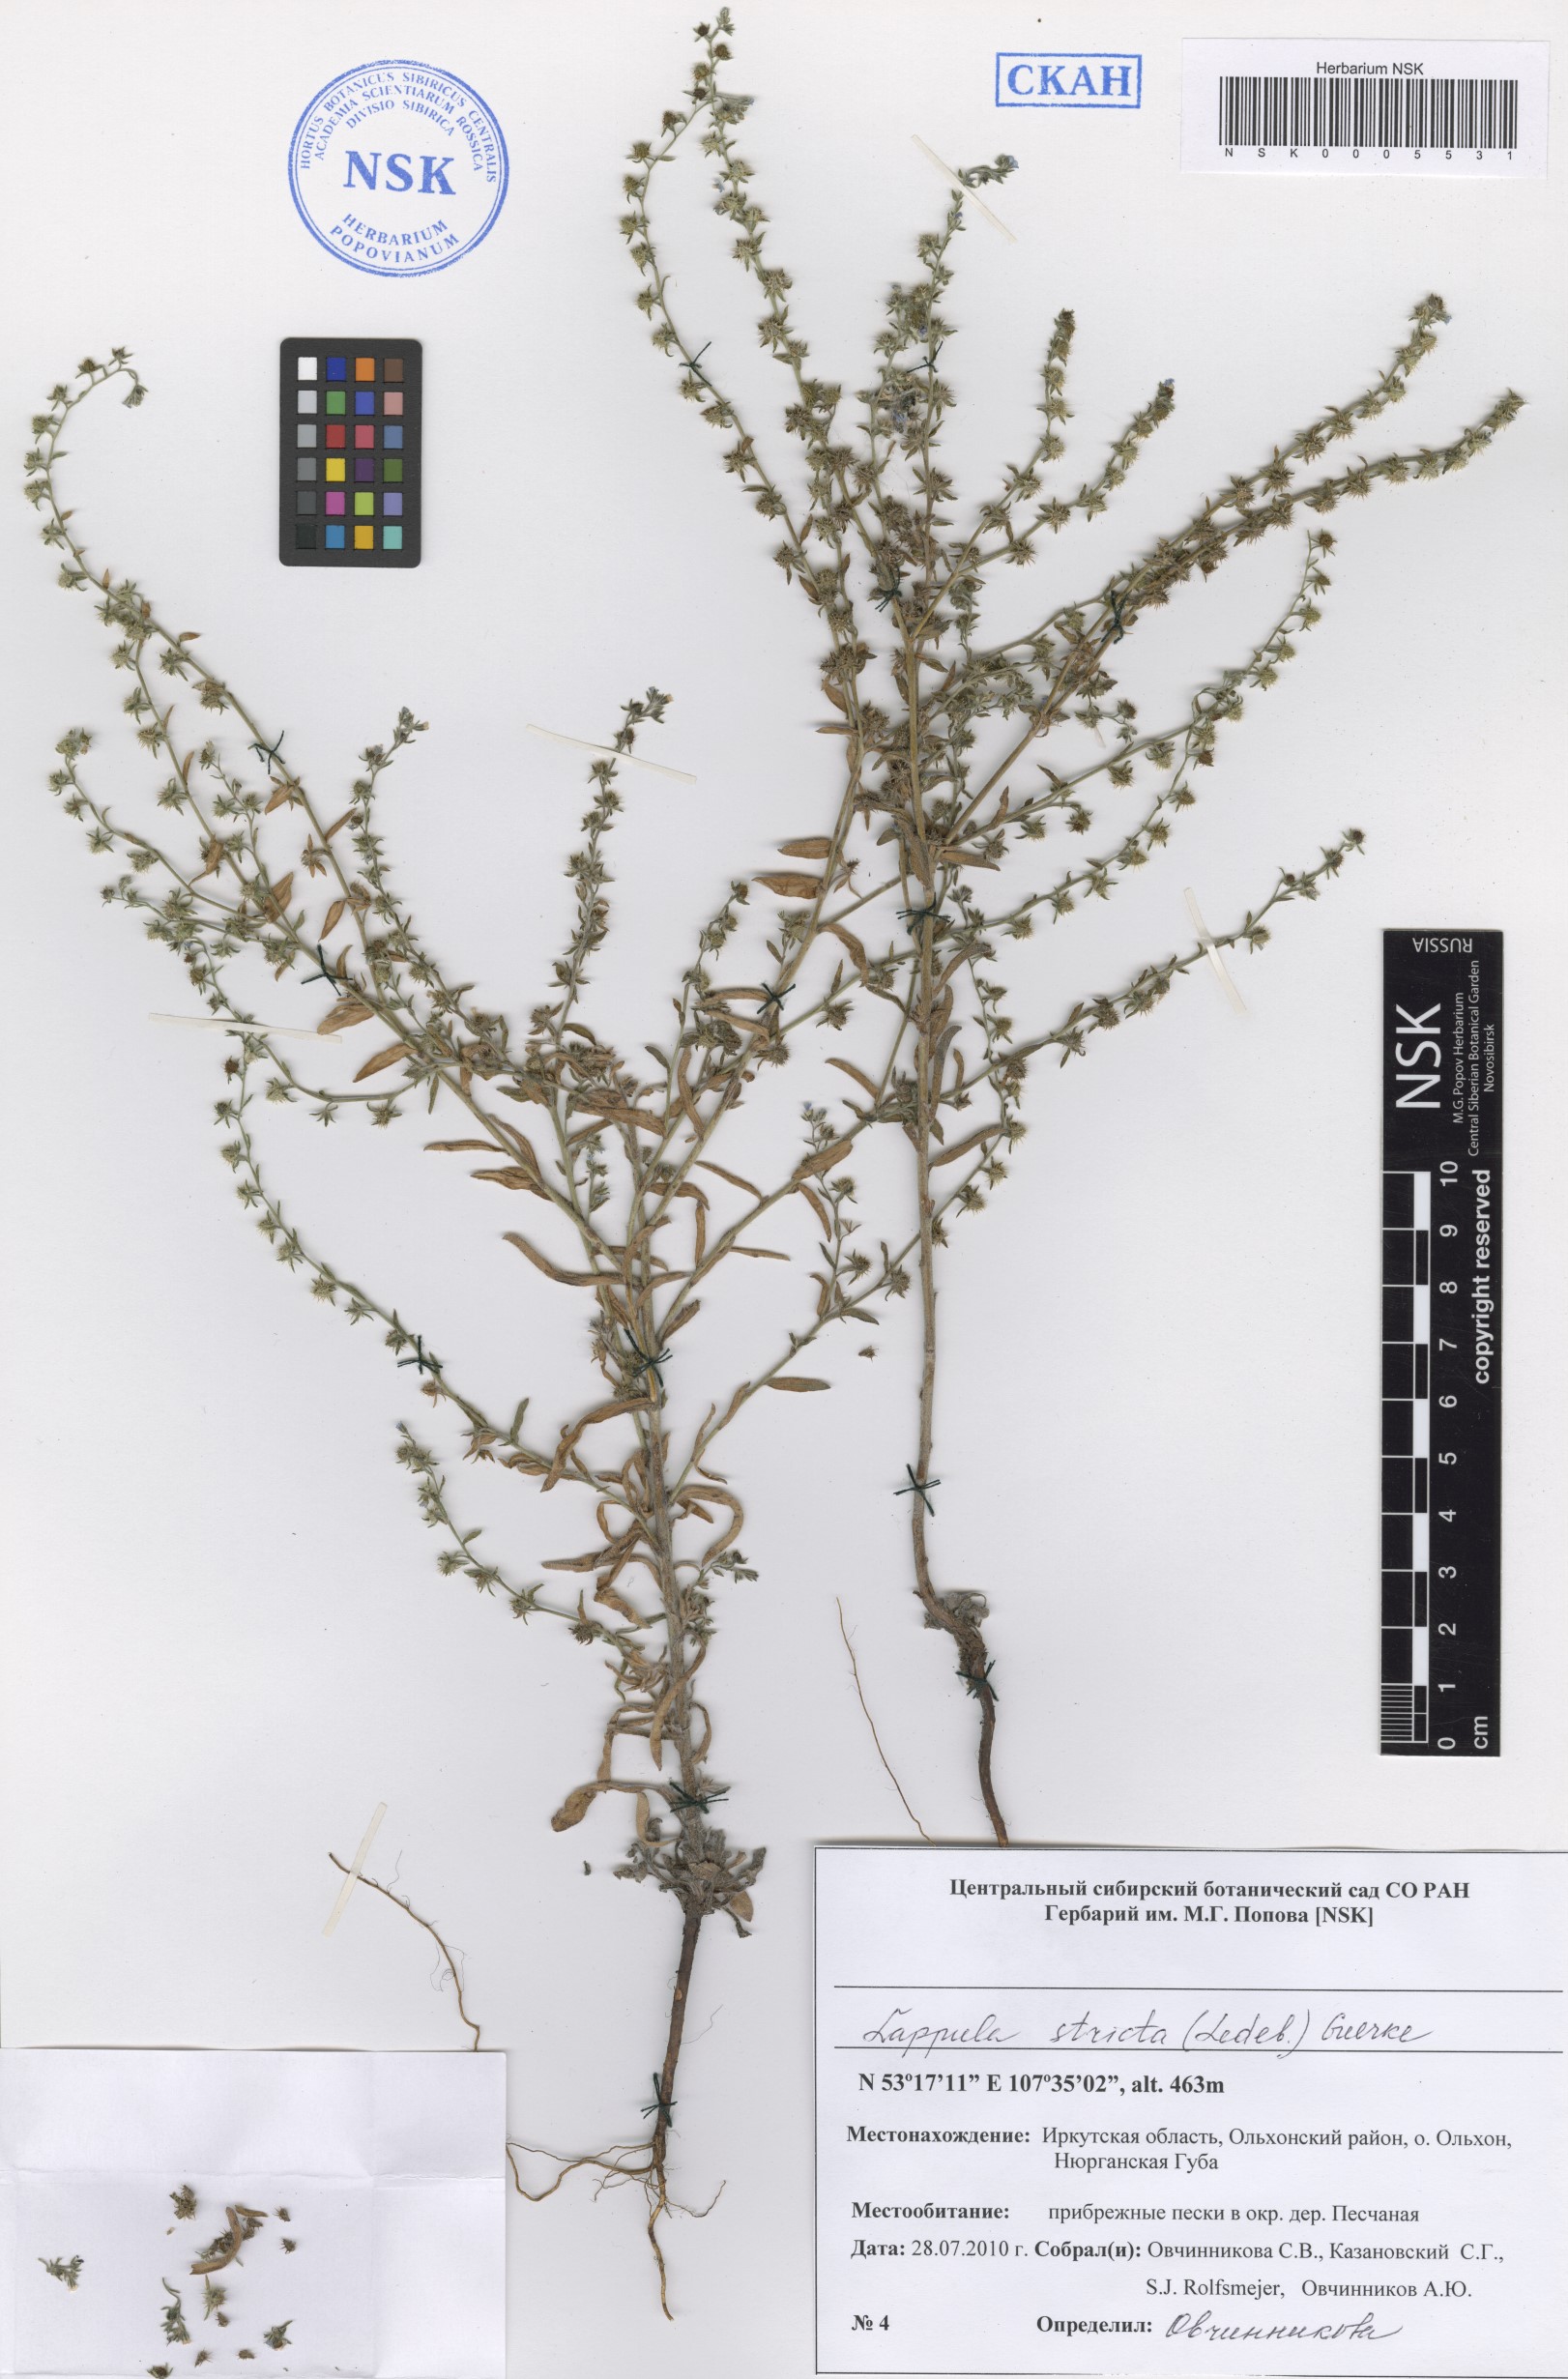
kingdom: Plantae
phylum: Tracheophyta
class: Magnoliopsida
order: Boraginales
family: Boraginaceae
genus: Lappula
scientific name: Lappula stricta
